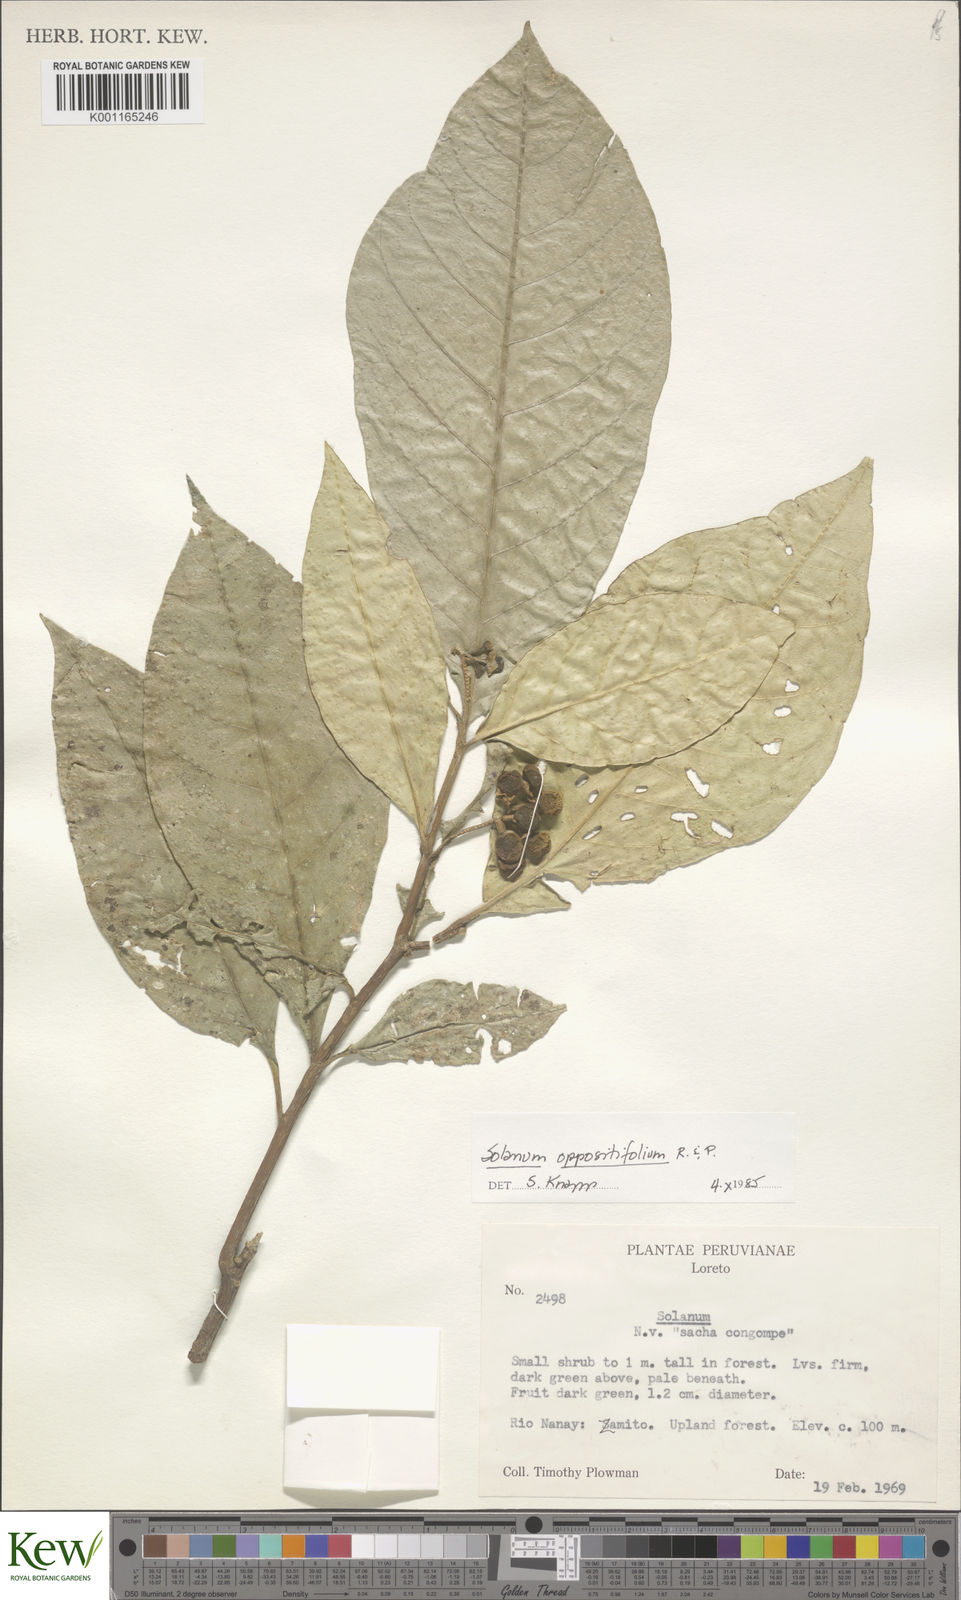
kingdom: Plantae
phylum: Tracheophyta
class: Magnoliopsida
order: Solanales
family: Solanaceae
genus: Solanum
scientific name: Solanum oppositifolium
